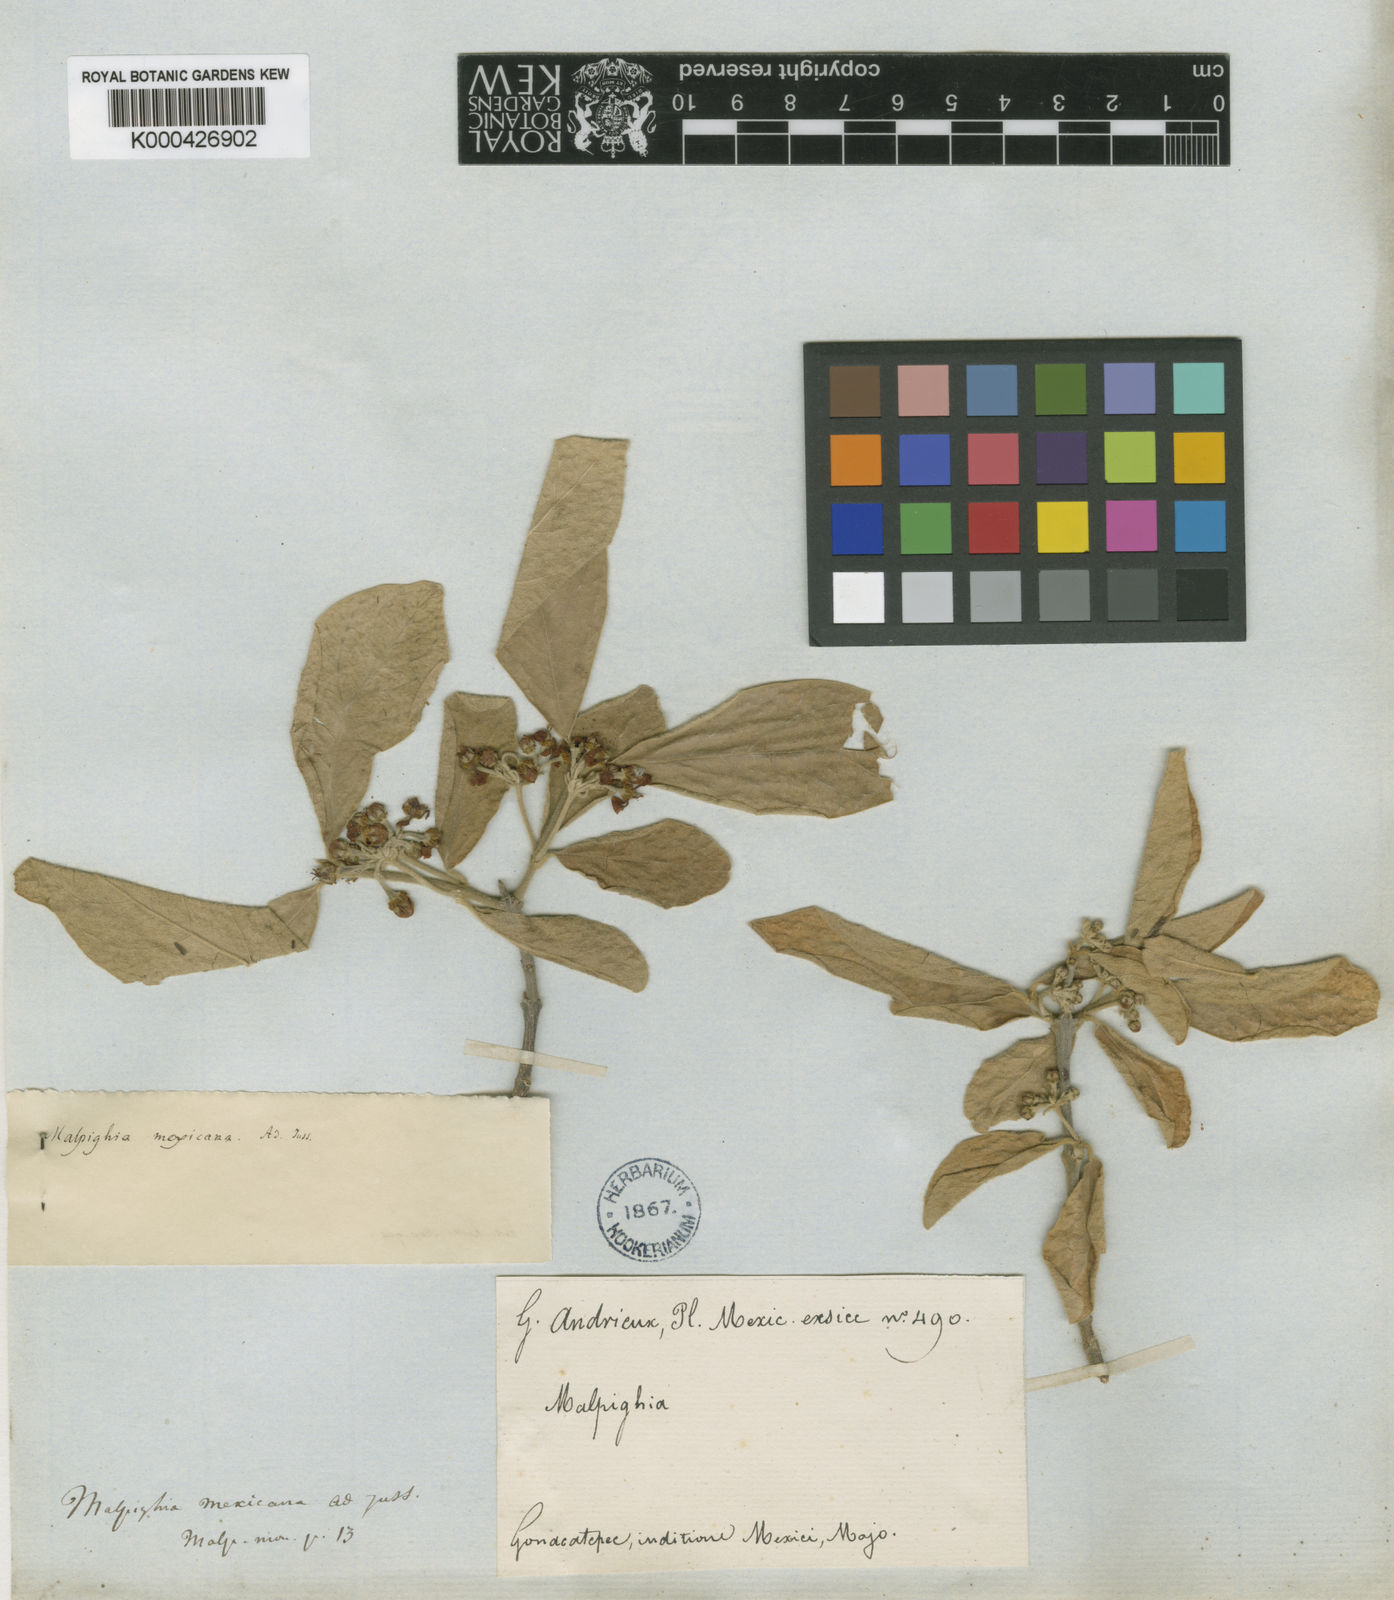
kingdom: Plantae
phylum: Tracheophyta
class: Magnoliopsida
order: Malpighiales
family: Malpighiaceae
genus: Malpighia
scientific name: Malpighia mexicana
